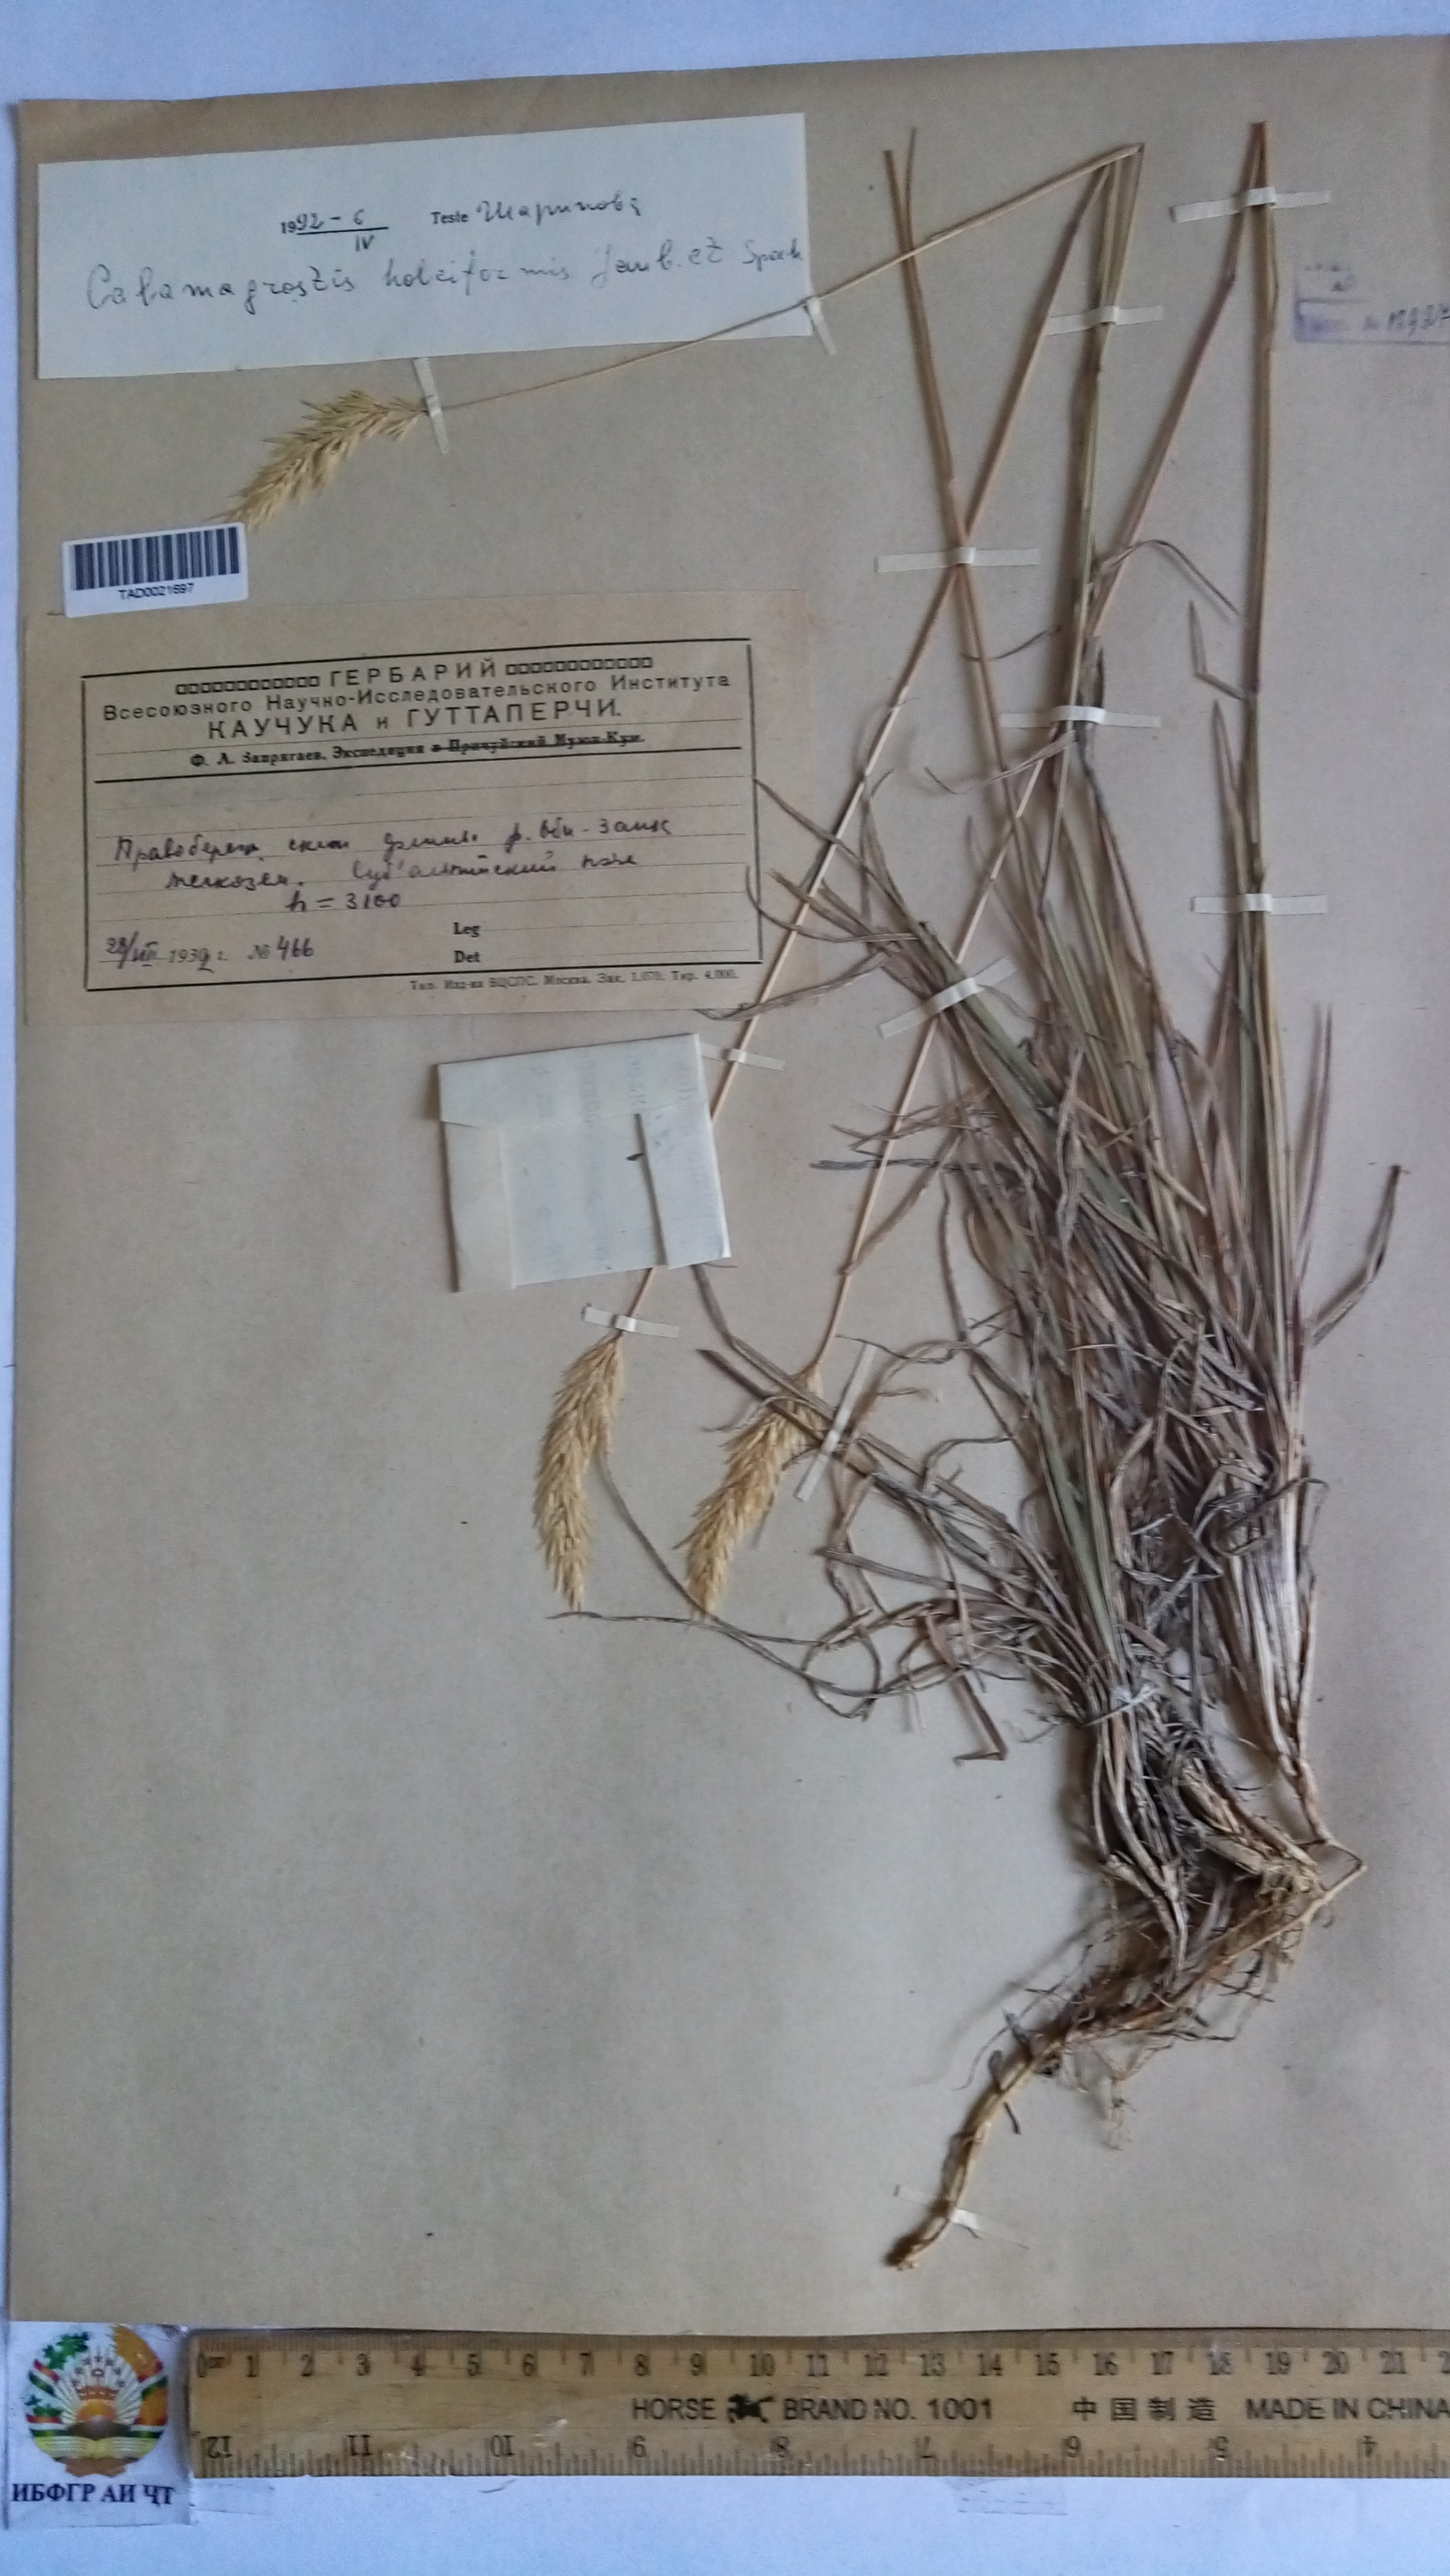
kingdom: Plantae
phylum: Tracheophyta
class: Liliopsida
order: Poales
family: Poaceae
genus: Calamagrostis
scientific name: Calamagrostis holciformis
